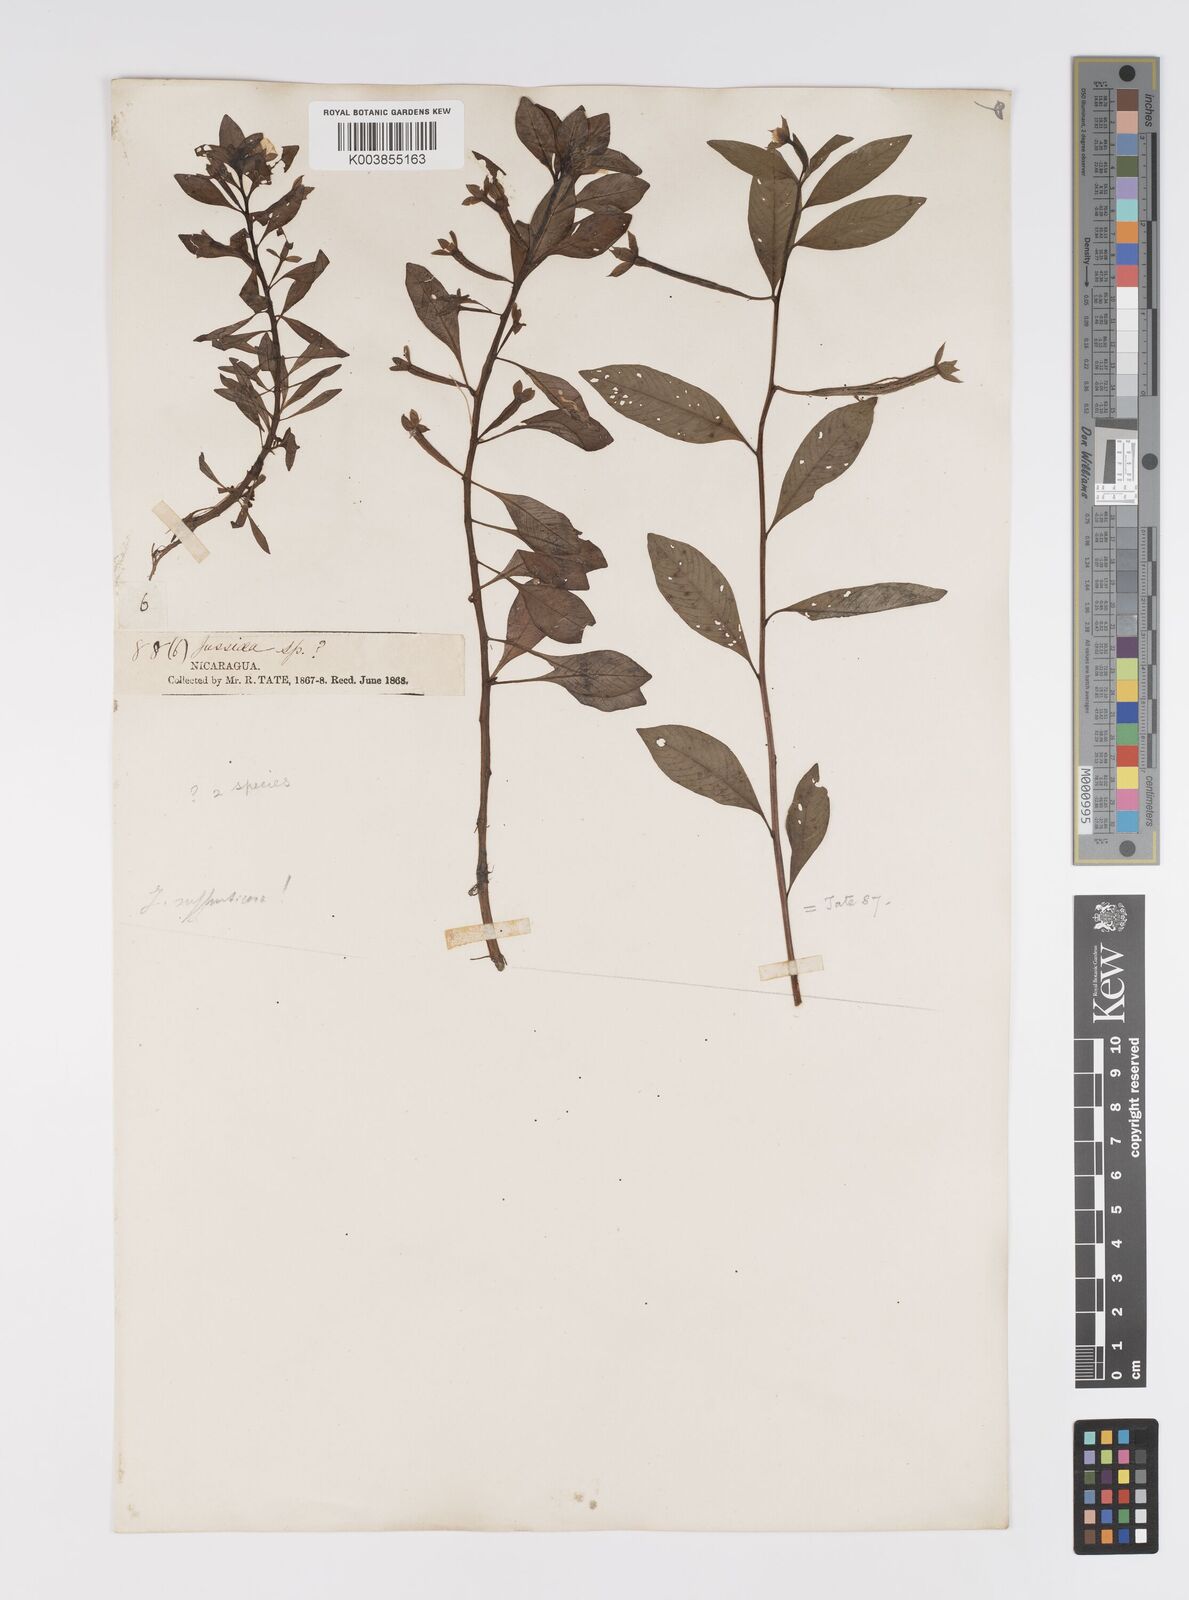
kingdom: Plantae
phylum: Tracheophyta
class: Magnoliopsida
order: Myrtales
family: Onagraceae
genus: Ludwigia
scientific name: Ludwigia adscendens
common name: Creeping water primrose
